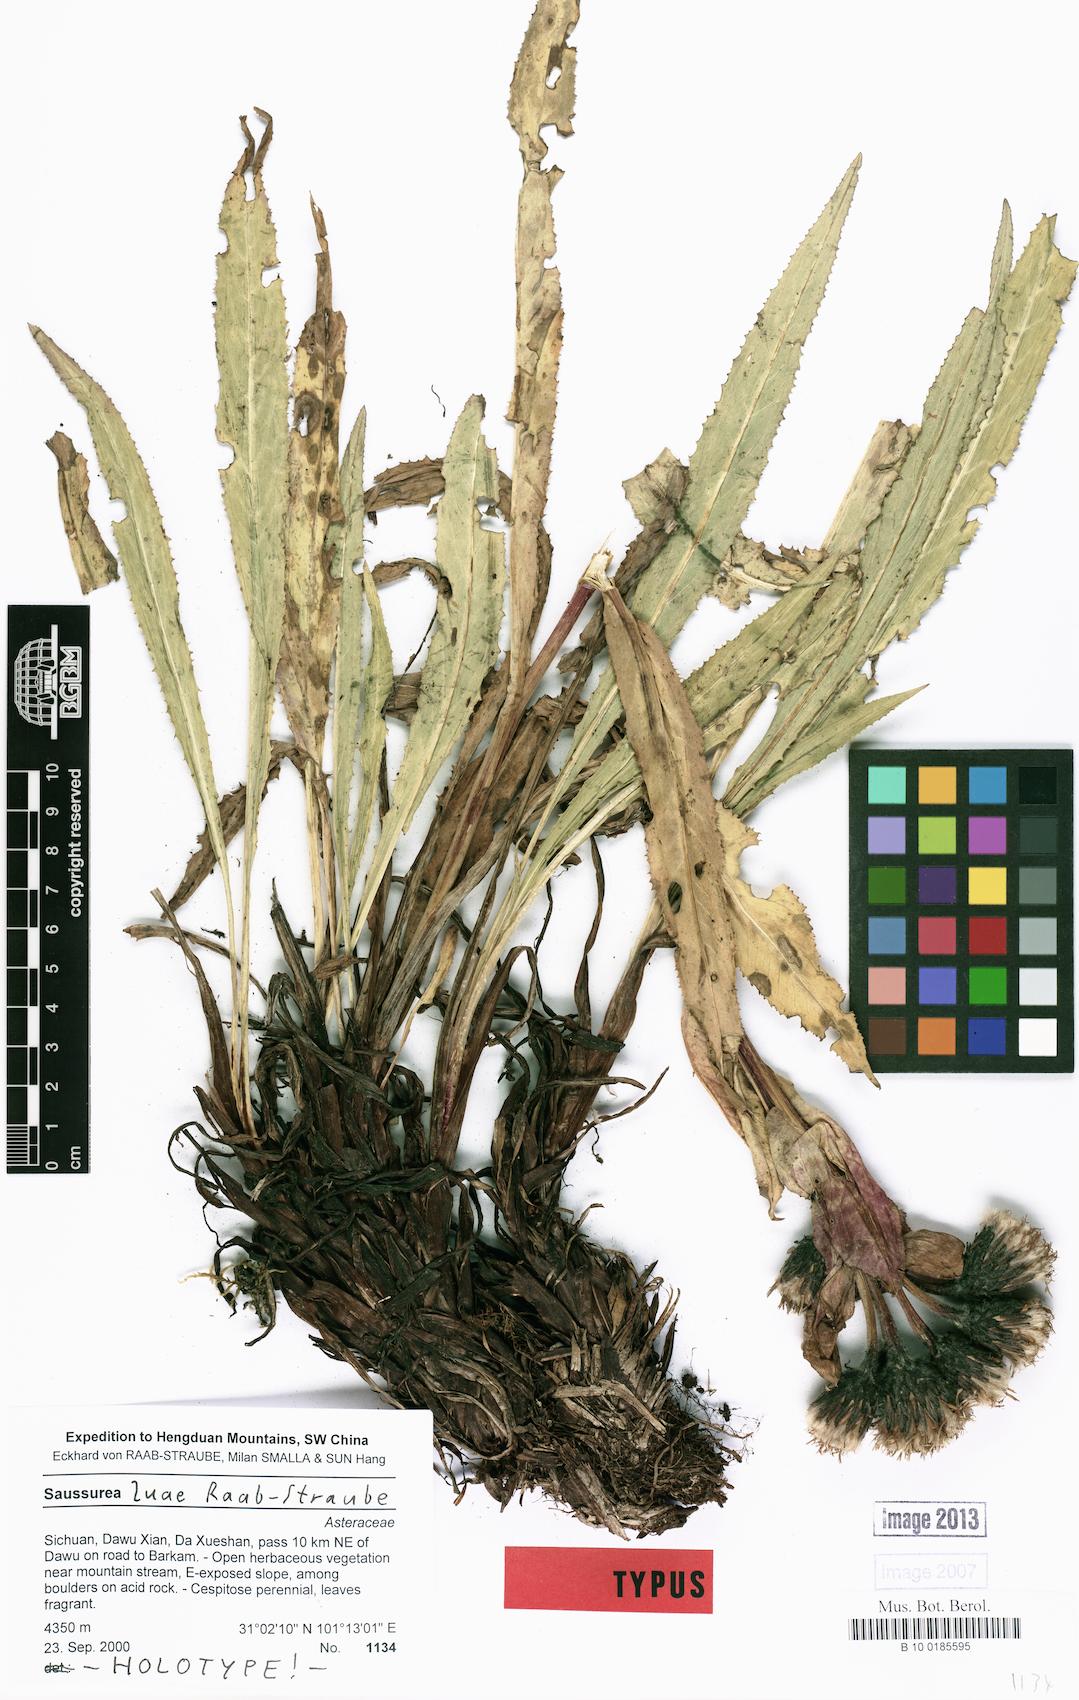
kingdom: Plantae
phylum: Tracheophyta
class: Magnoliopsida
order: Asterales
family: Asteraceae
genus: Saussurea
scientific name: Saussurea luae
